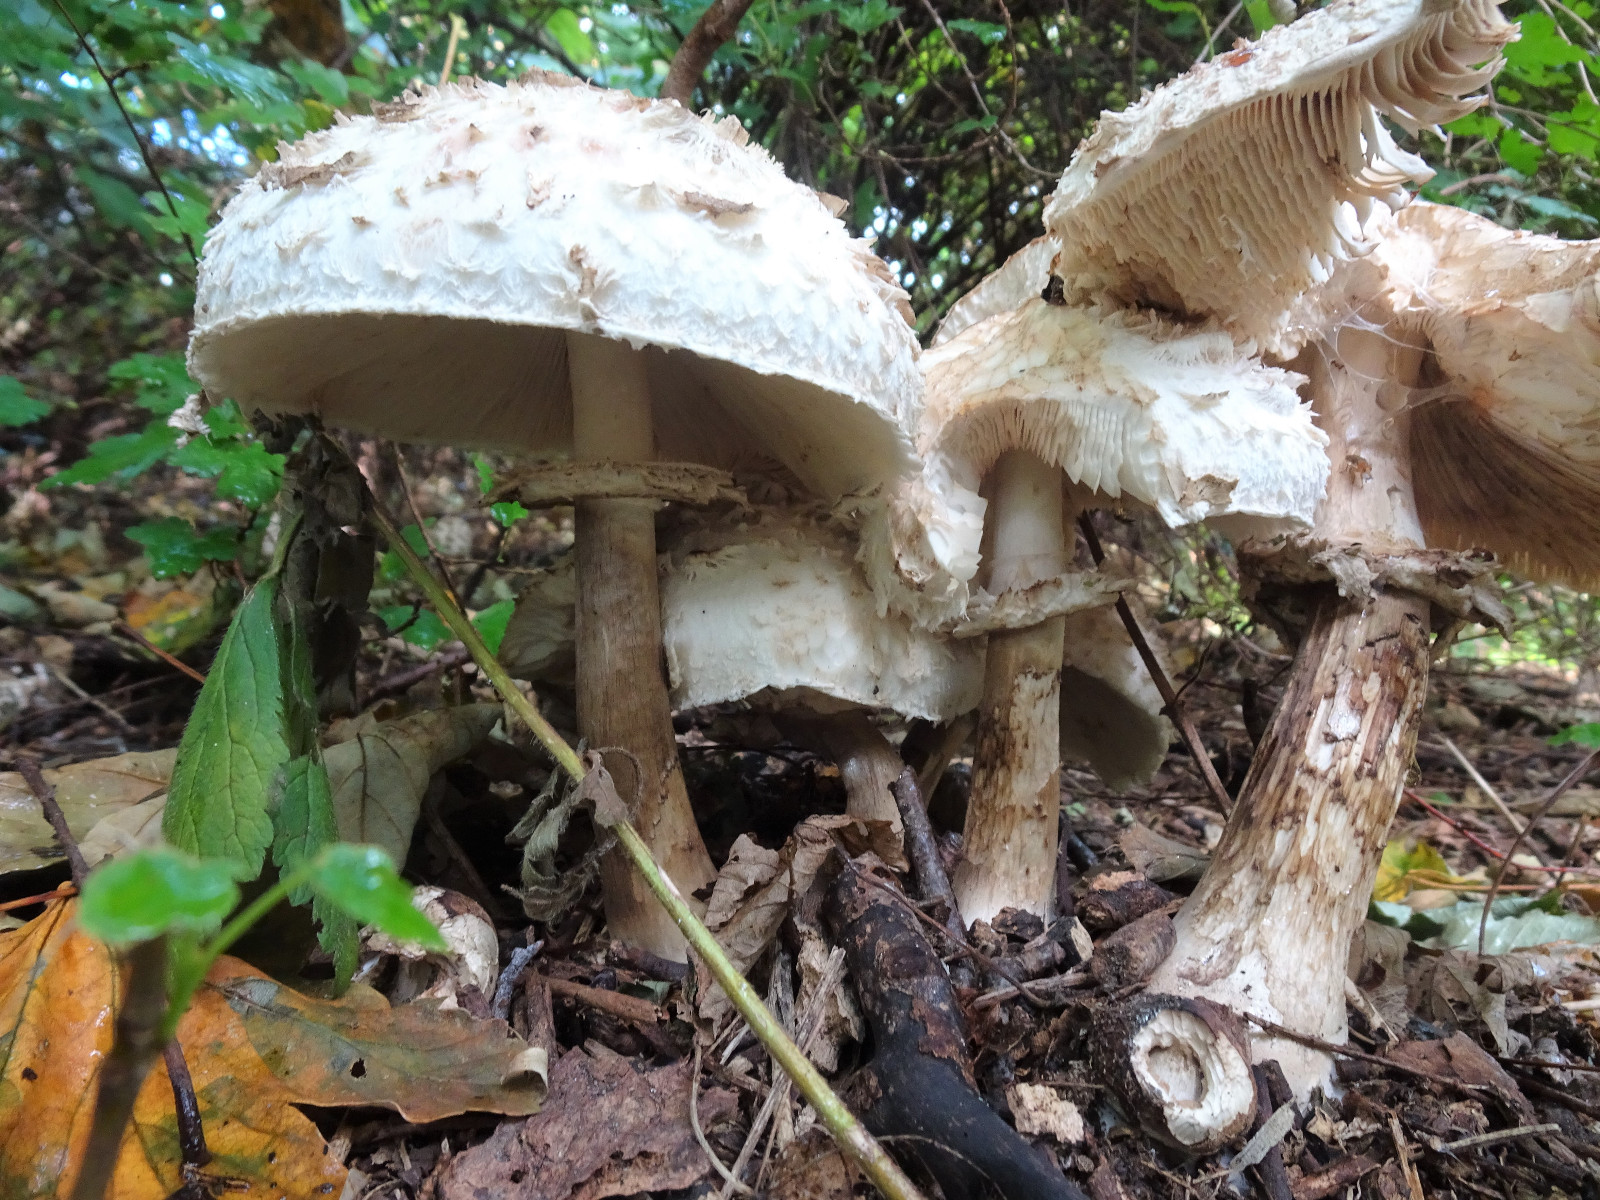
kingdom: Fungi
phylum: Basidiomycota
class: Agaricomycetes
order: Agaricales
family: Agaricaceae
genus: Chlorophyllum
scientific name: Chlorophyllum rhacodes
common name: ægte rabarberhat
